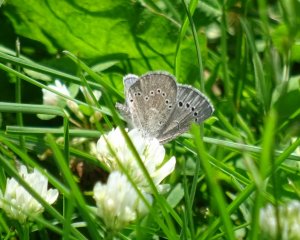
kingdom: Animalia
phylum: Arthropoda
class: Insecta
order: Lepidoptera
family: Lycaenidae
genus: Glaucopsyche
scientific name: Glaucopsyche lygdamus
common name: Silvery Blue
